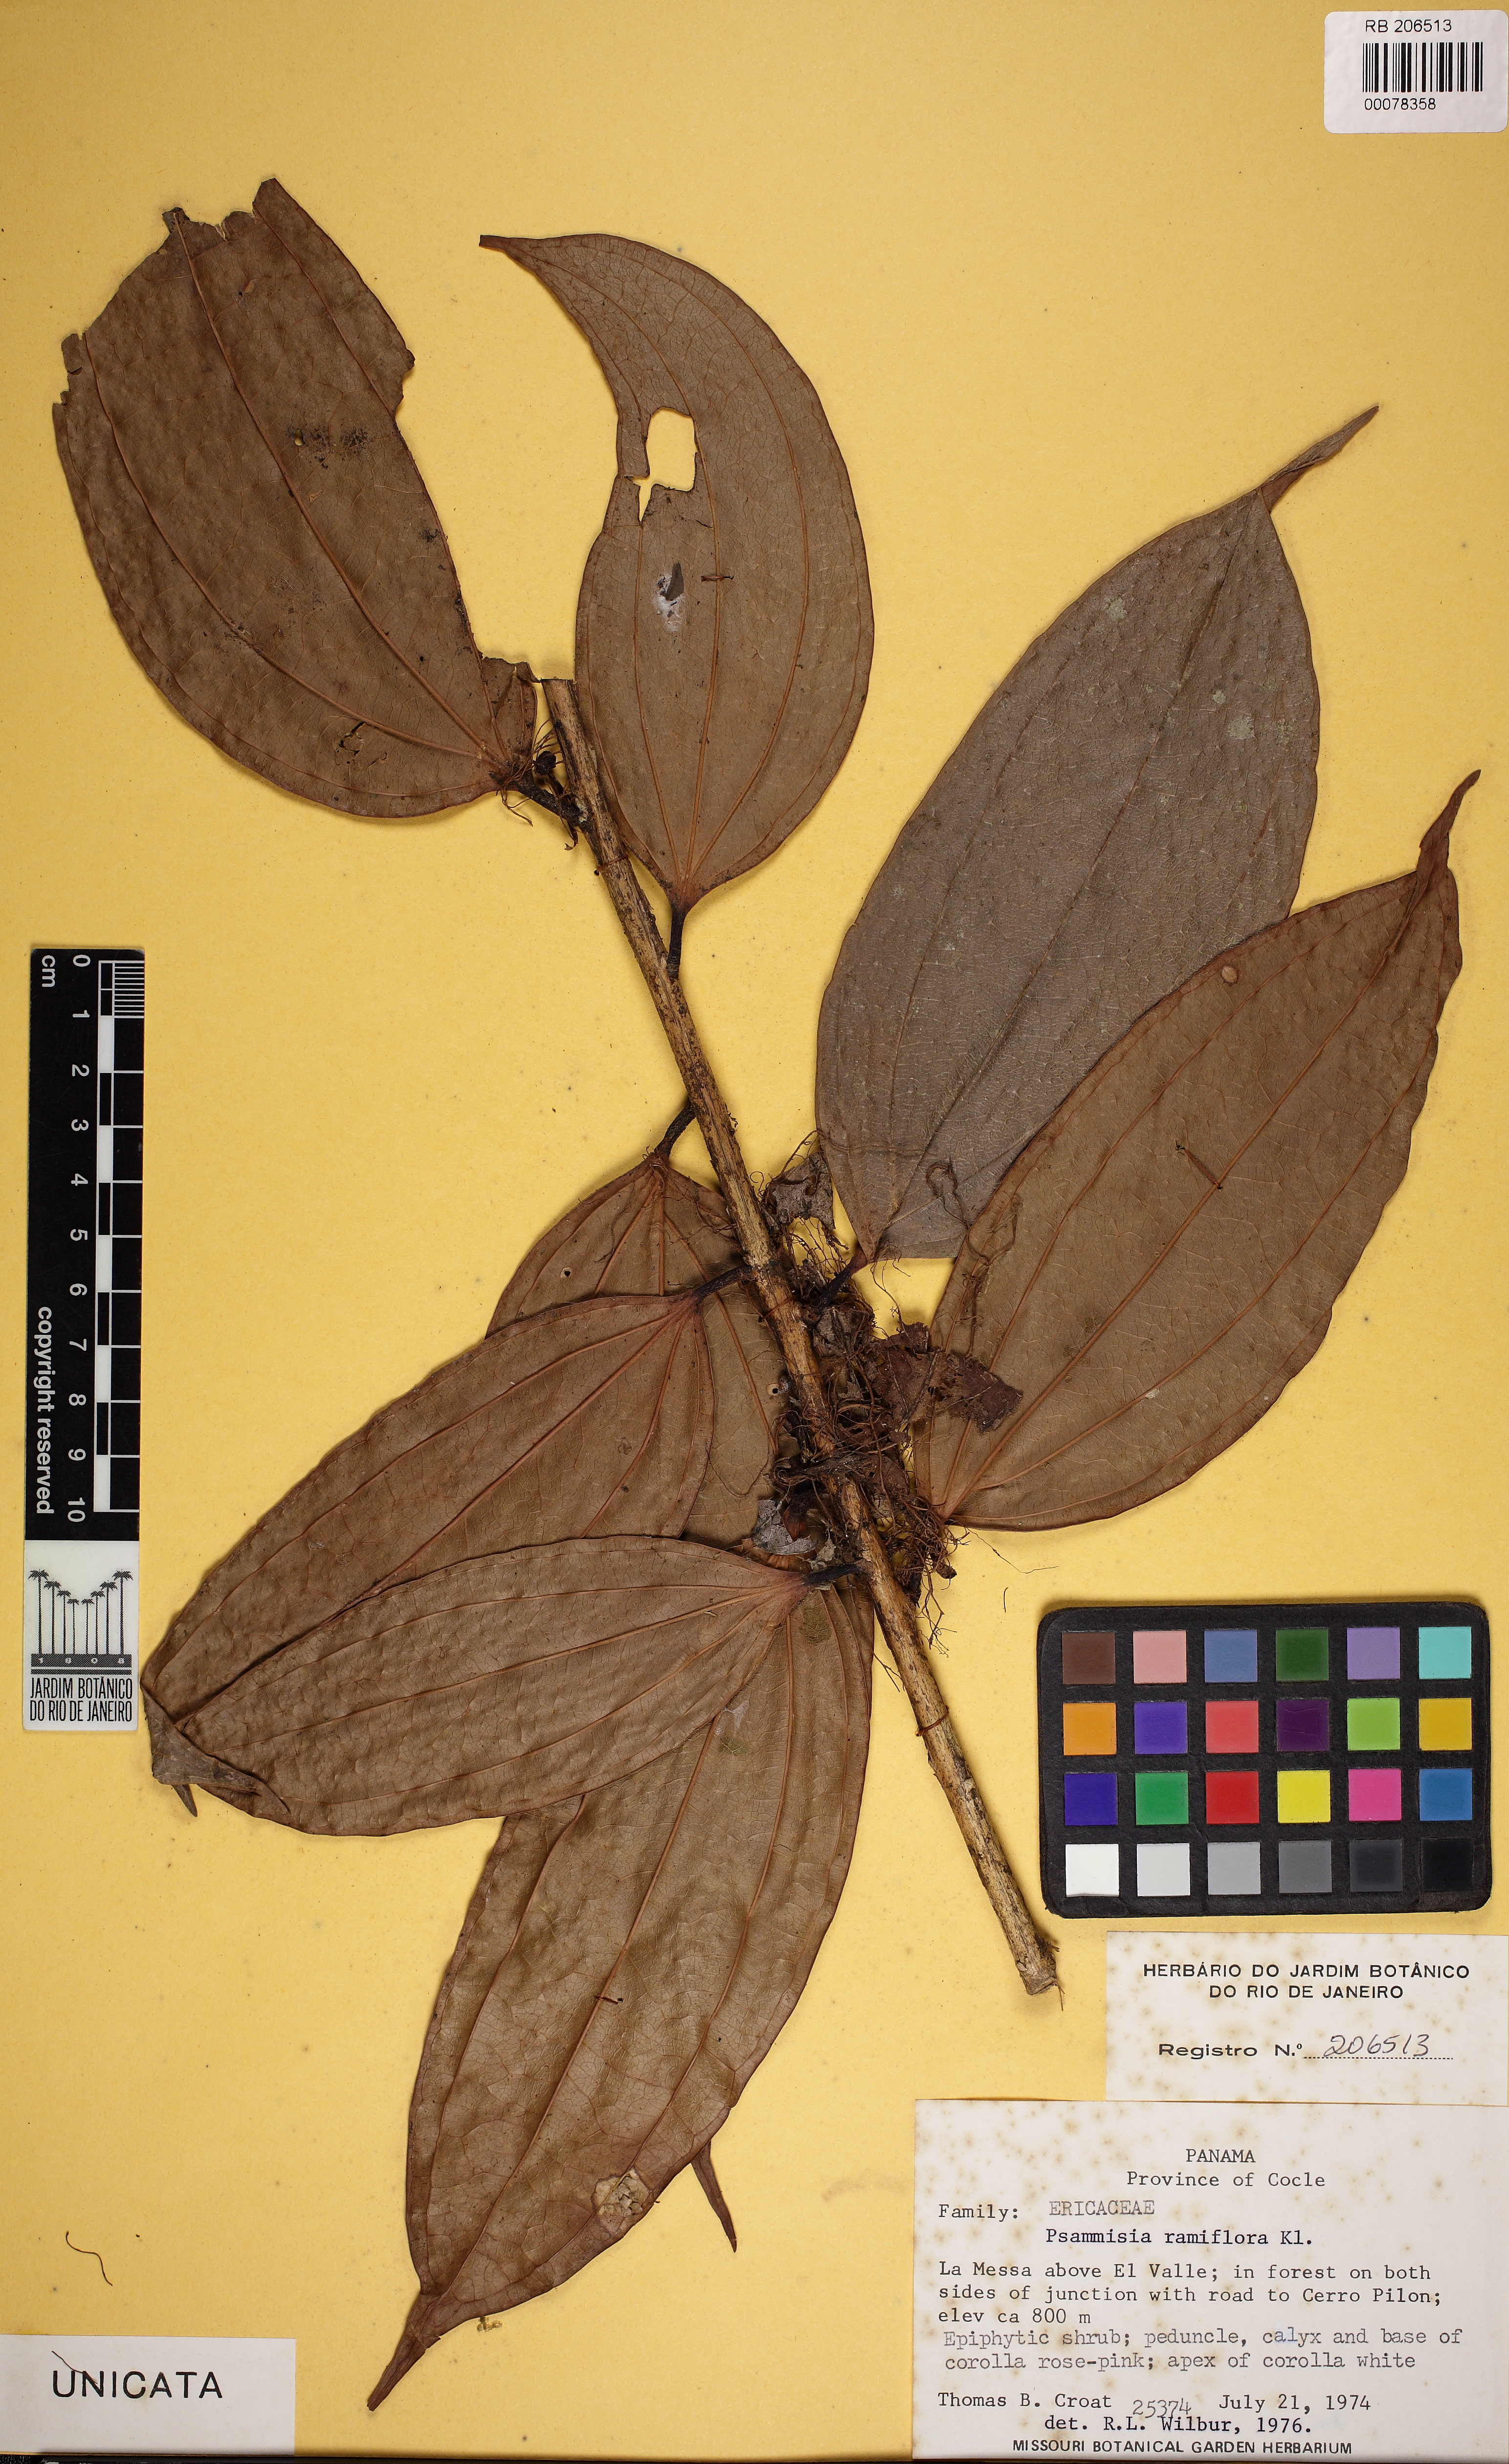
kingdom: Plantae
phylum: Tracheophyta
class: Magnoliopsida
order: Ericales
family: Ericaceae
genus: Psammisia
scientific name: Psammisia ramiflora
